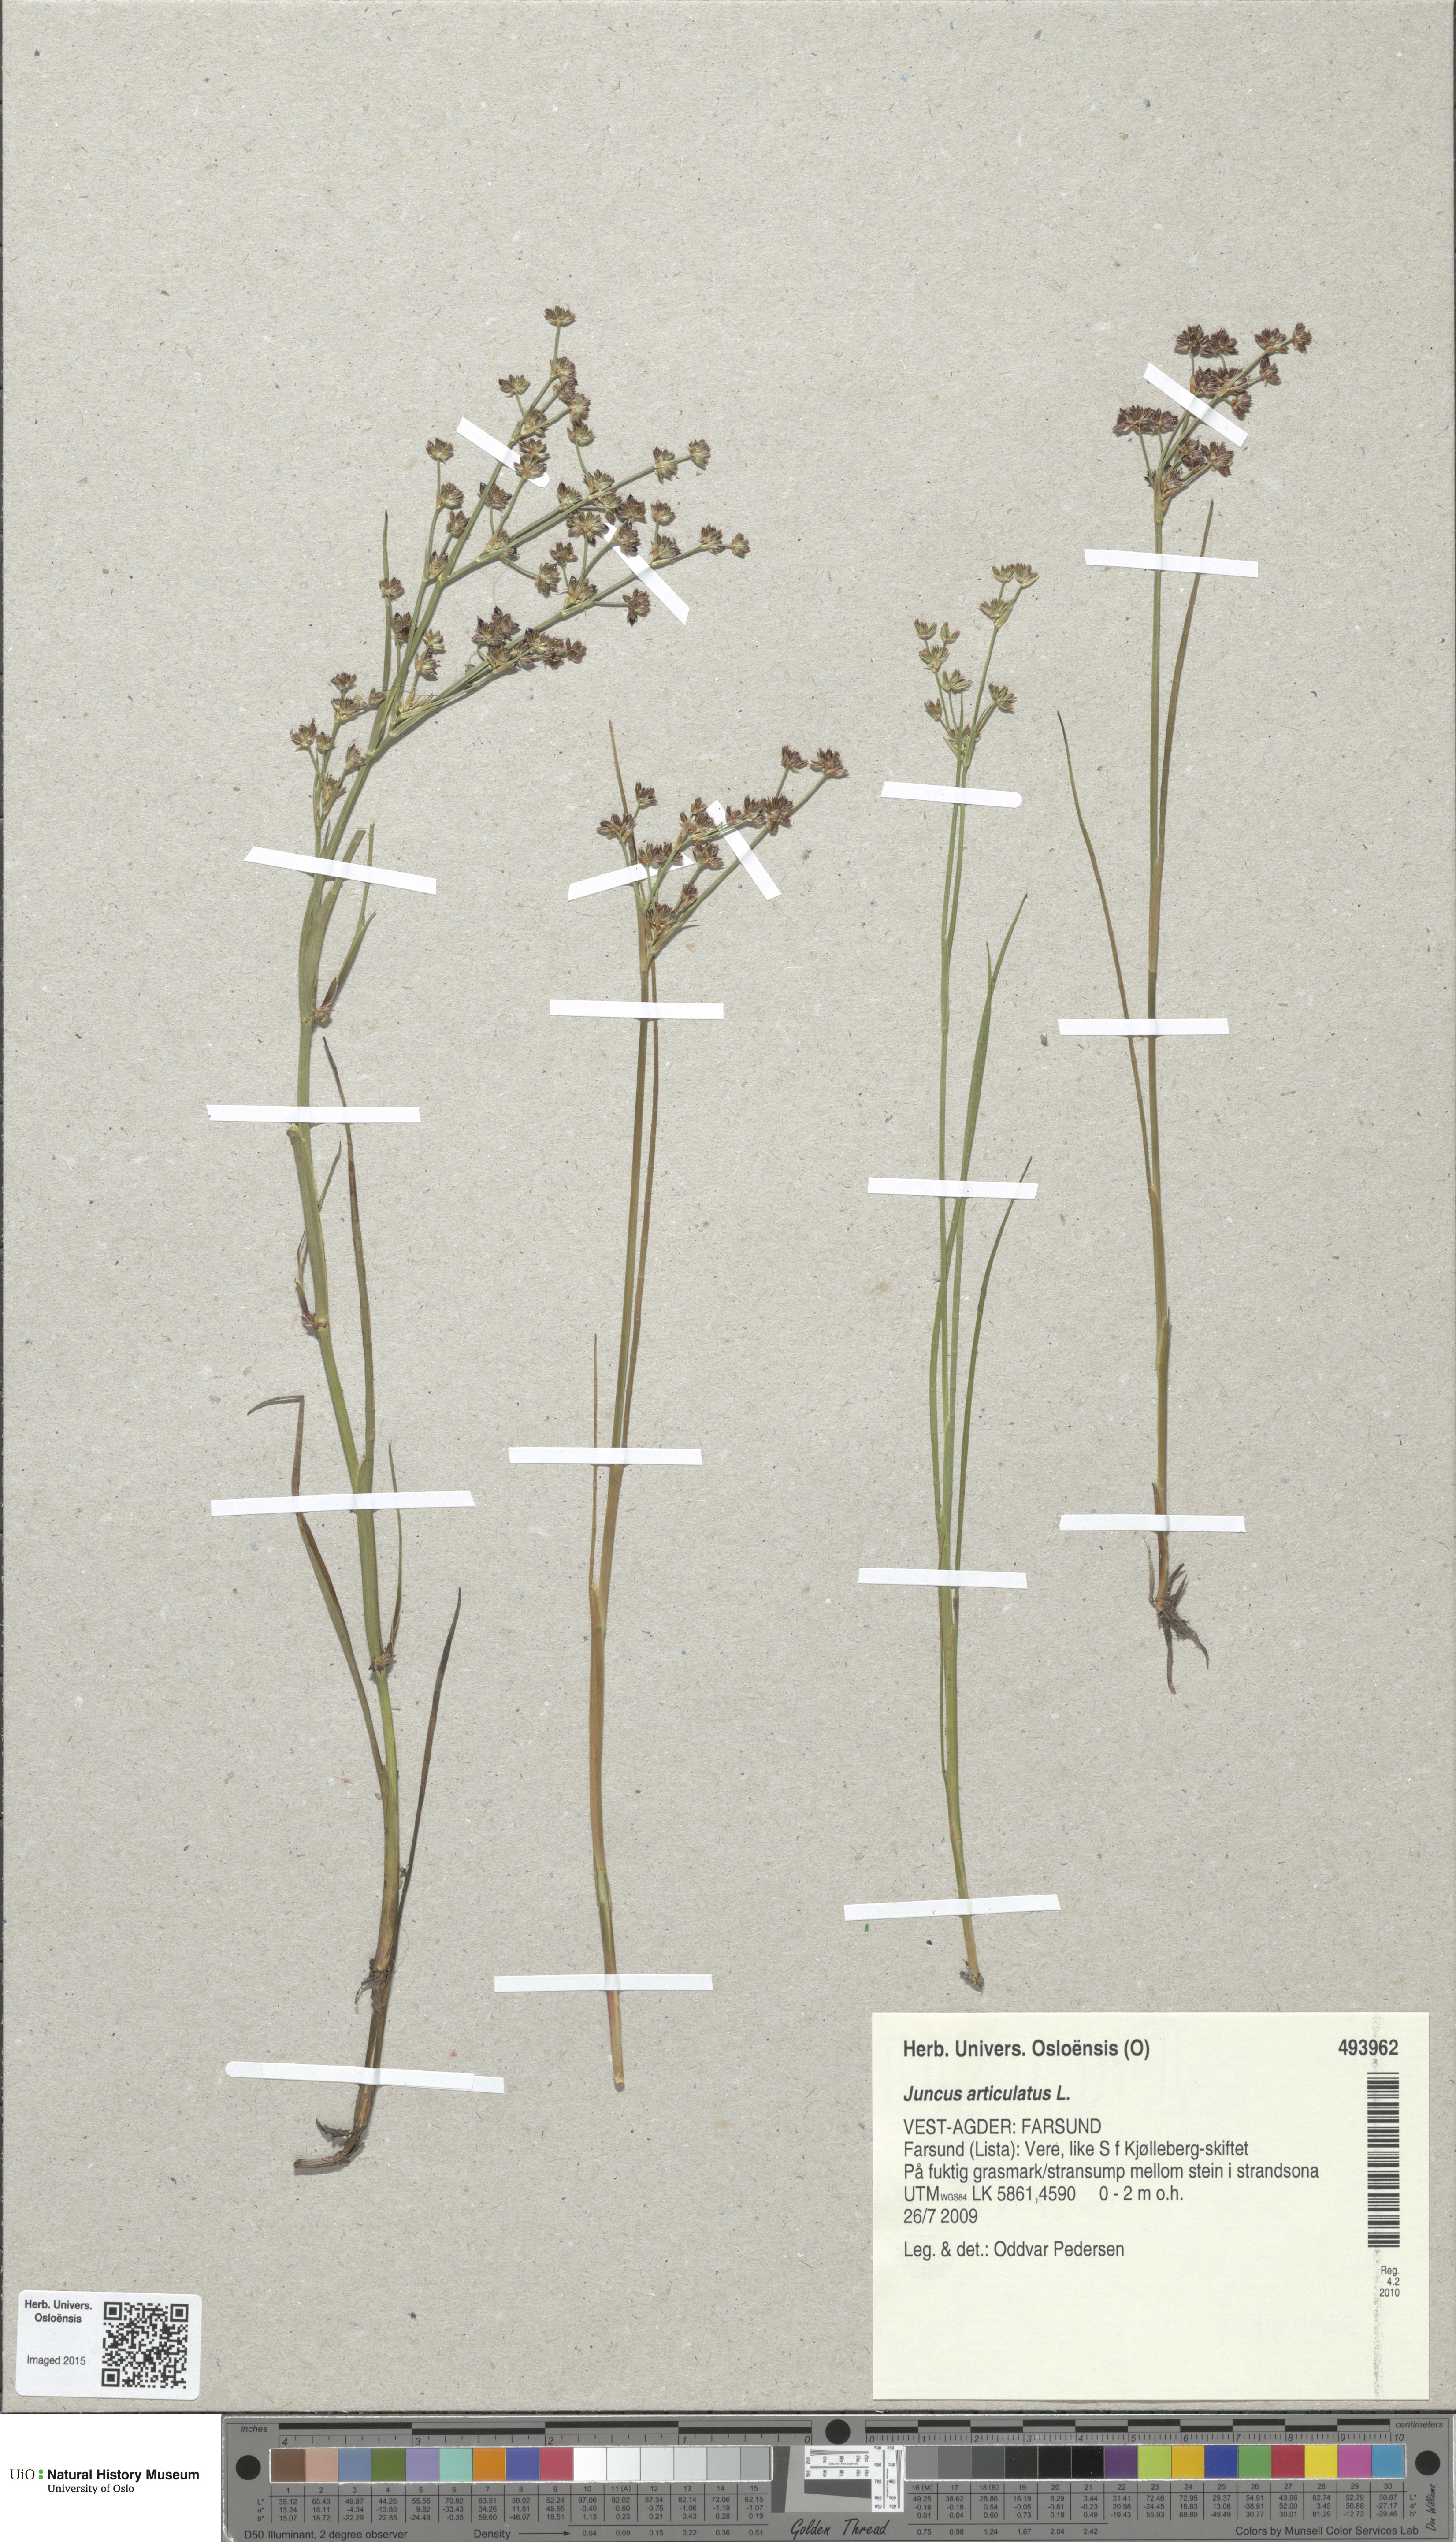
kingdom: Plantae
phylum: Tracheophyta
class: Liliopsida
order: Poales
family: Juncaceae
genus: Juncus
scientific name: Juncus articulatus
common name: Jointed rush
